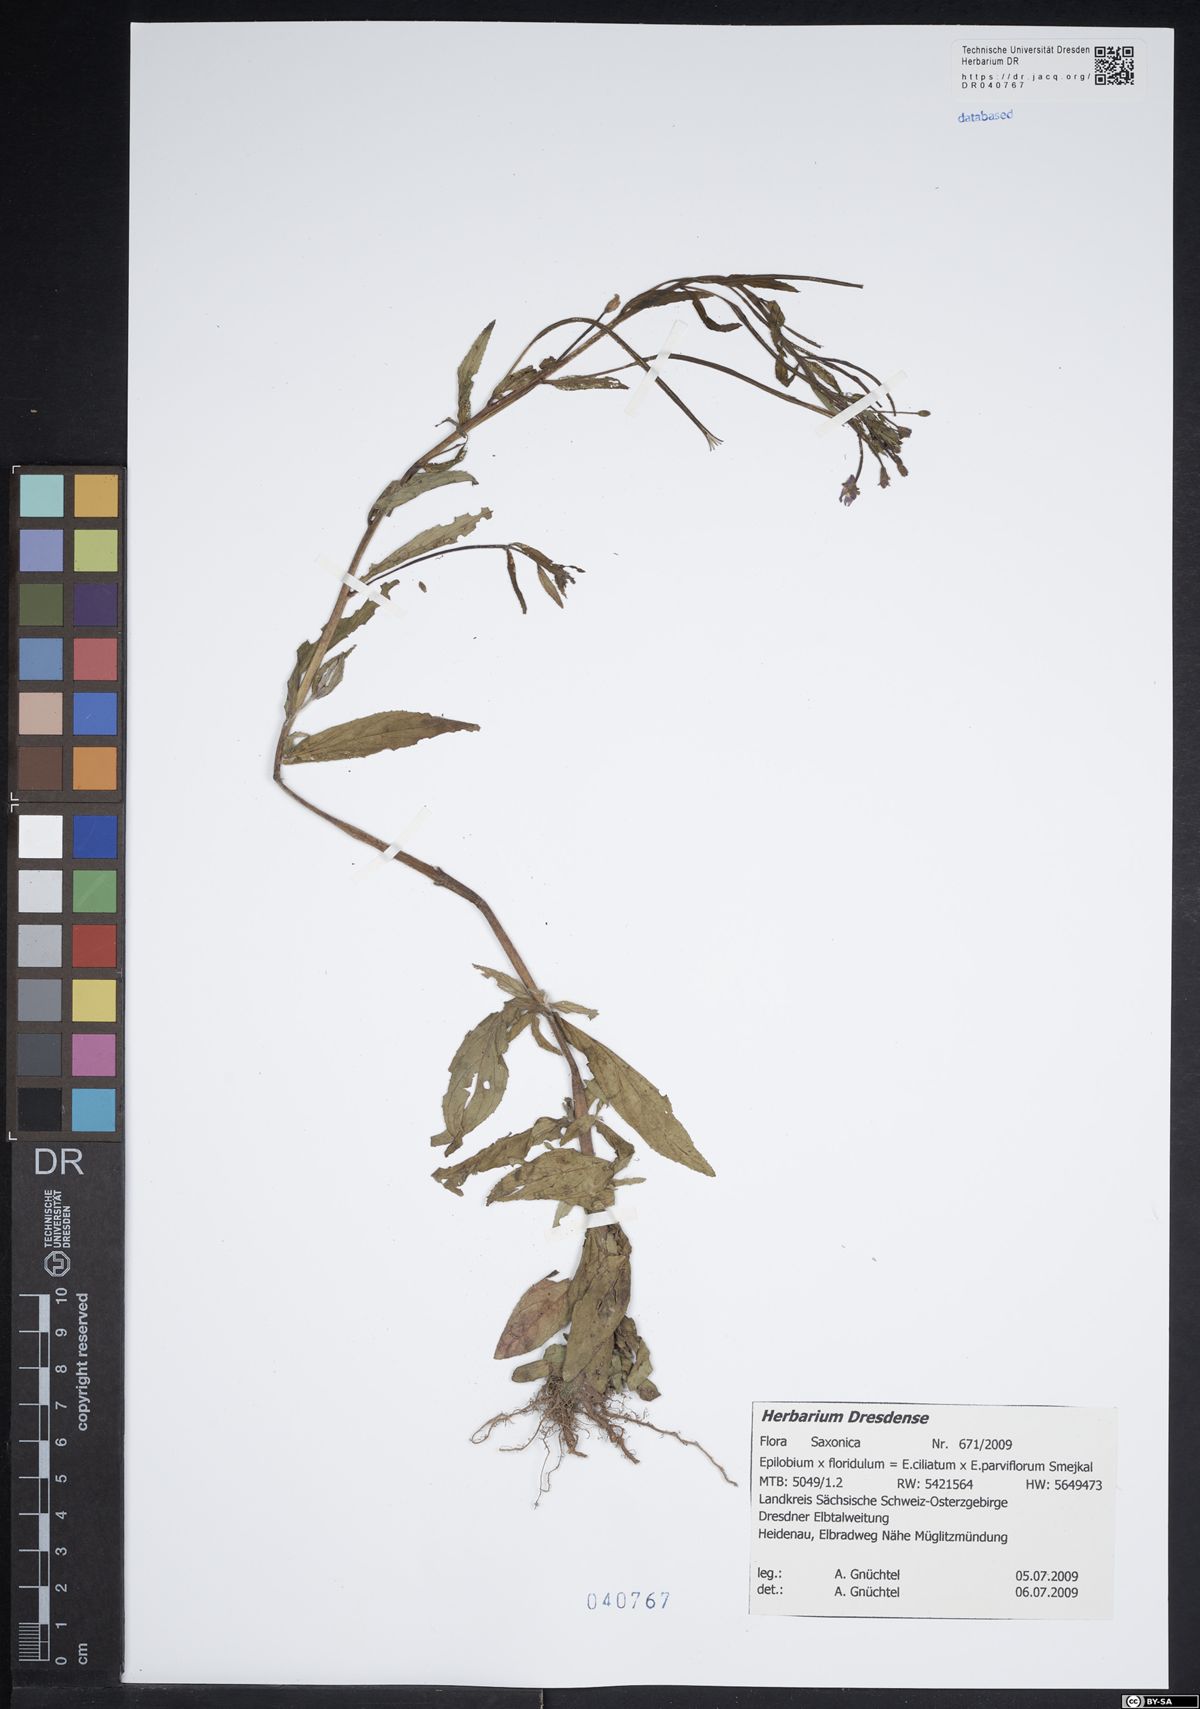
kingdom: Plantae
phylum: Tracheophyta
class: Magnoliopsida
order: Myrtales
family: Onagraceae
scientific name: Onagraceae
